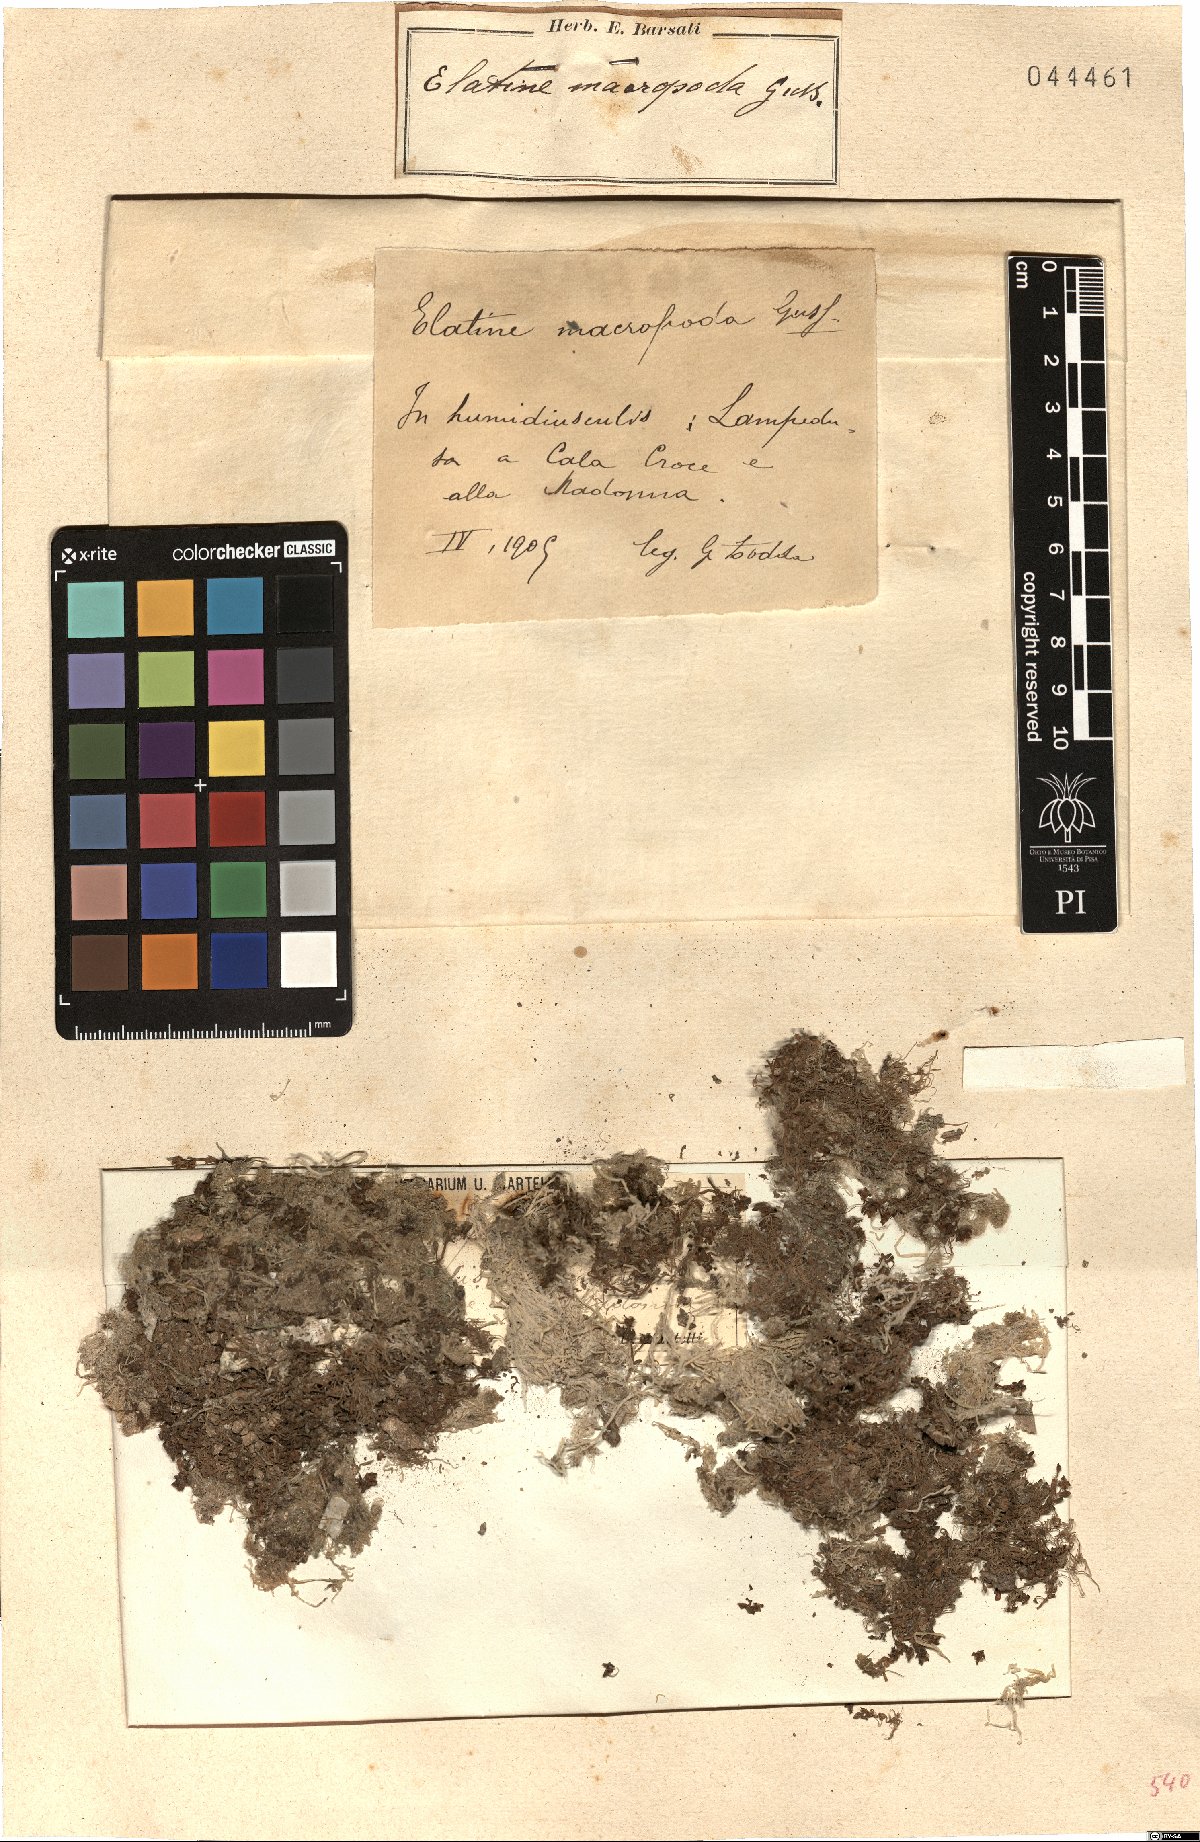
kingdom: Plantae
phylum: Tracheophyta
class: Magnoliopsida
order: Malpighiales
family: Elatinaceae
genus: Elatine
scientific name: Elatine macropoda
